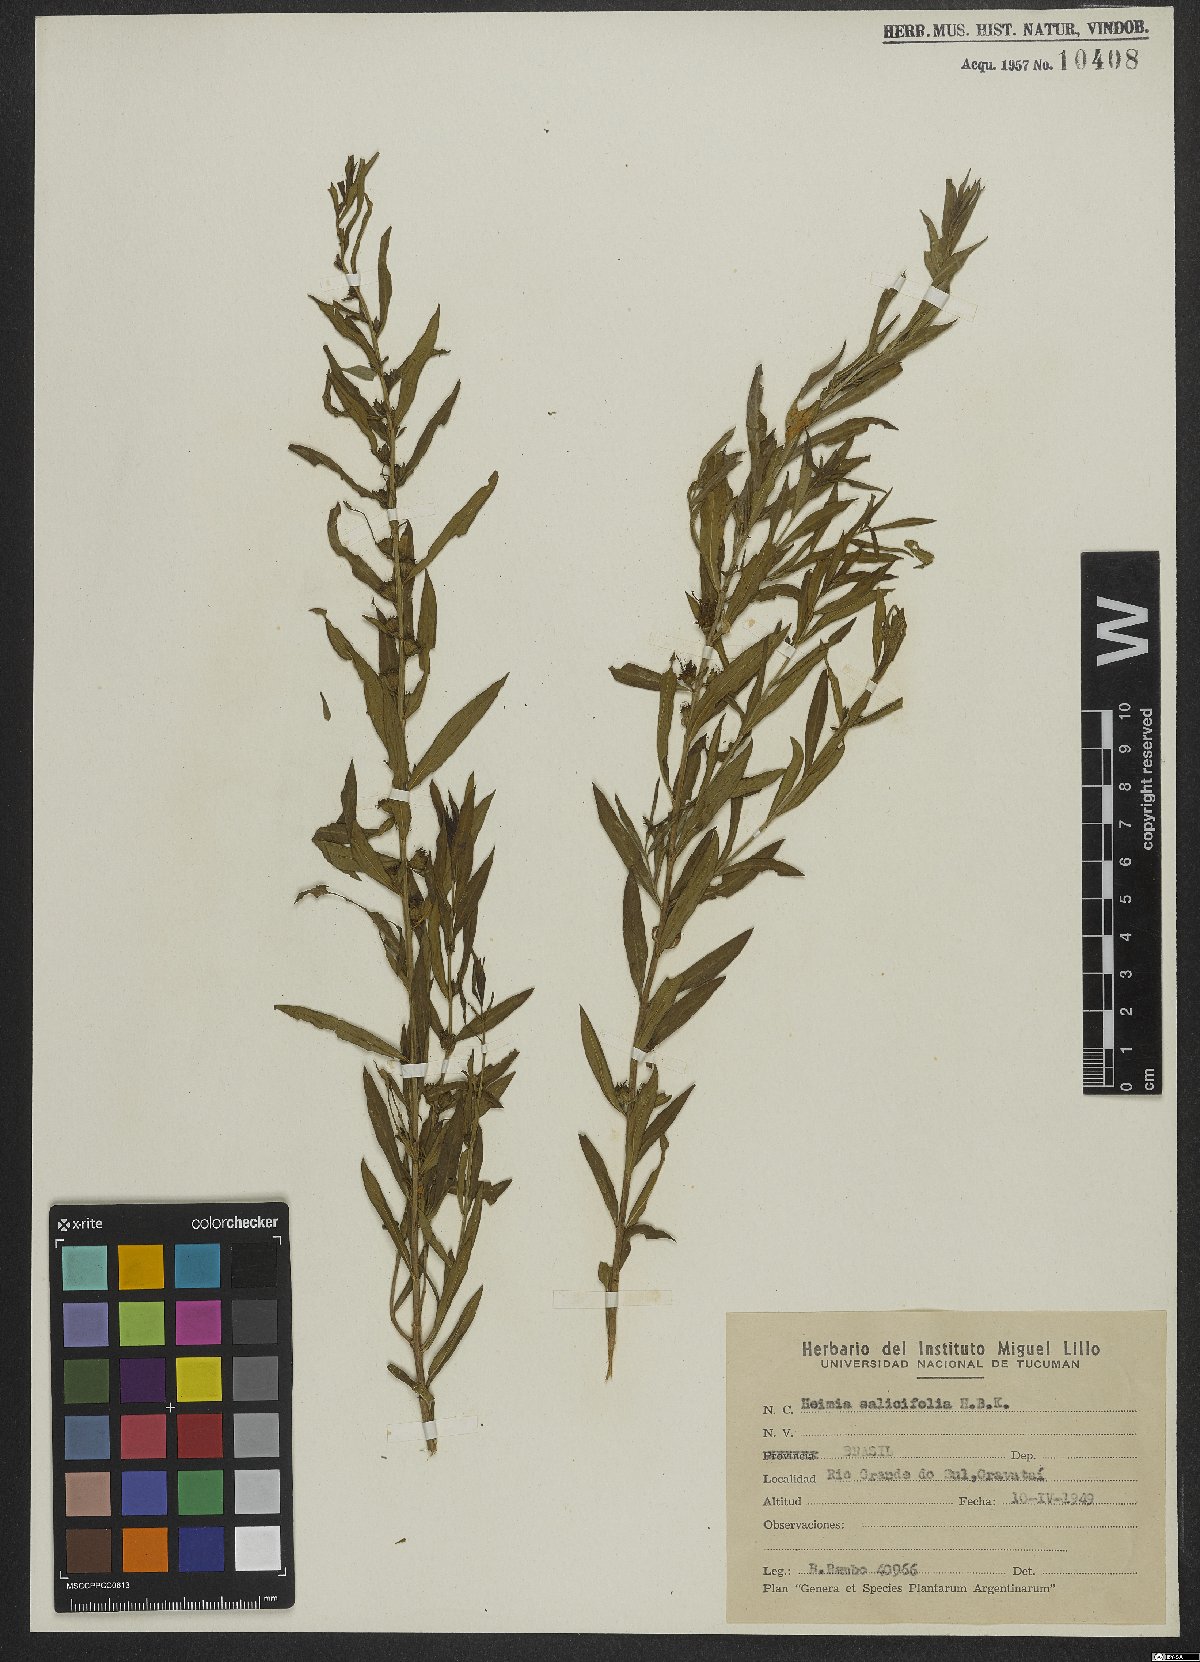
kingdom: Plantae
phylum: Tracheophyta
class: Magnoliopsida
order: Myrtales
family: Lythraceae
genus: Heimia
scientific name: Heimia salicifolia
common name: Willow-leaf heimia
